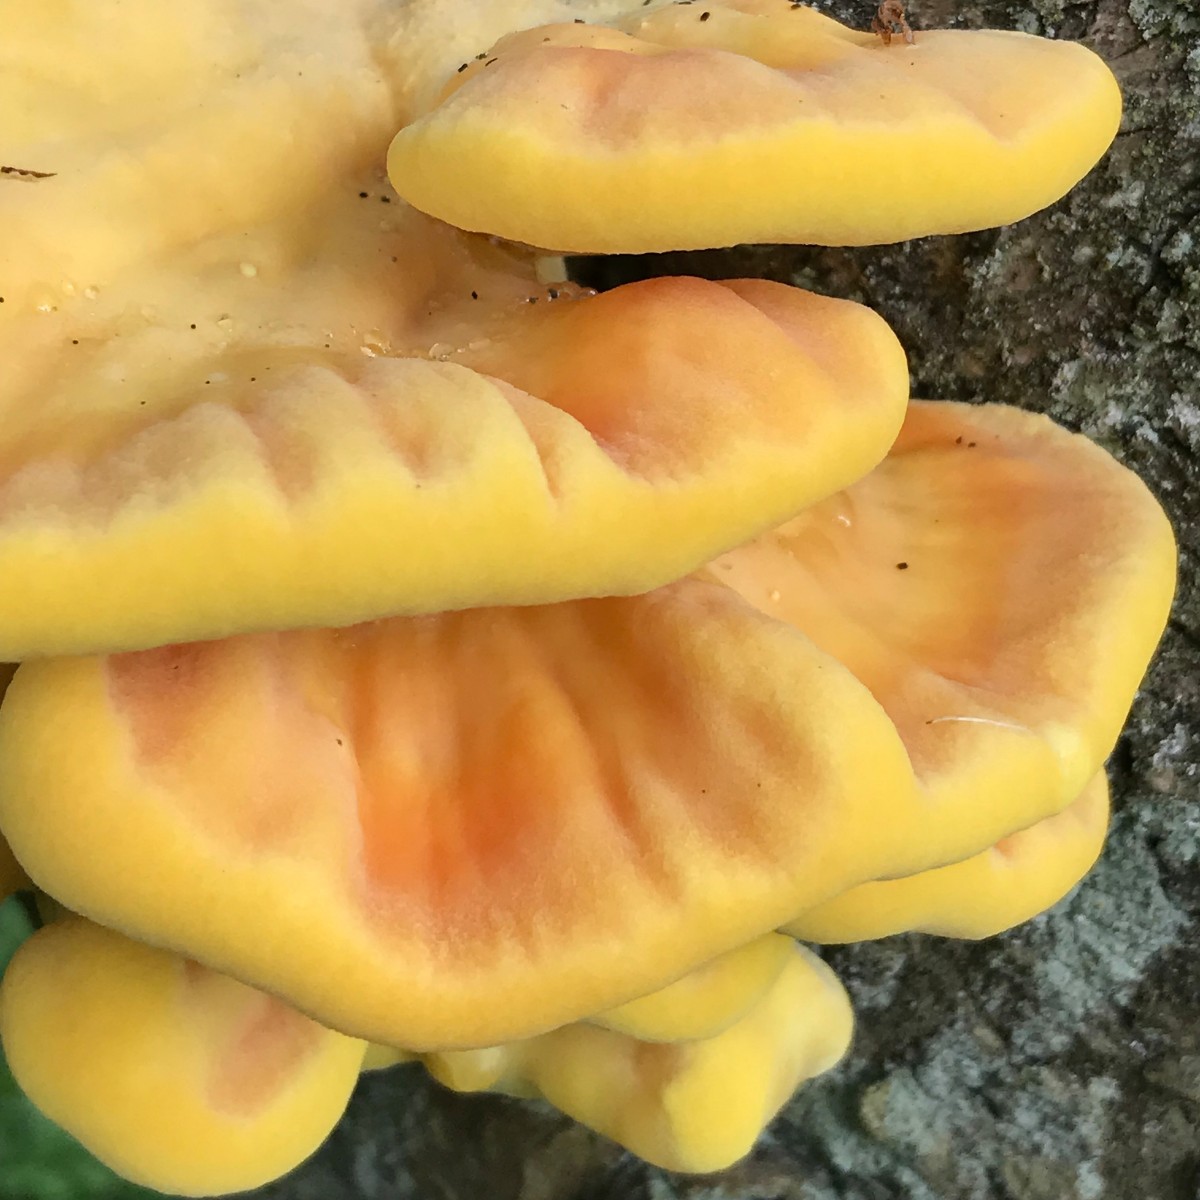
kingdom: Fungi
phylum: Basidiomycota
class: Agaricomycetes
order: Polyporales
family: Laetiporaceae
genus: Laetiporus
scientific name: Laetiporus sulphureus
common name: svovlporesvamp
